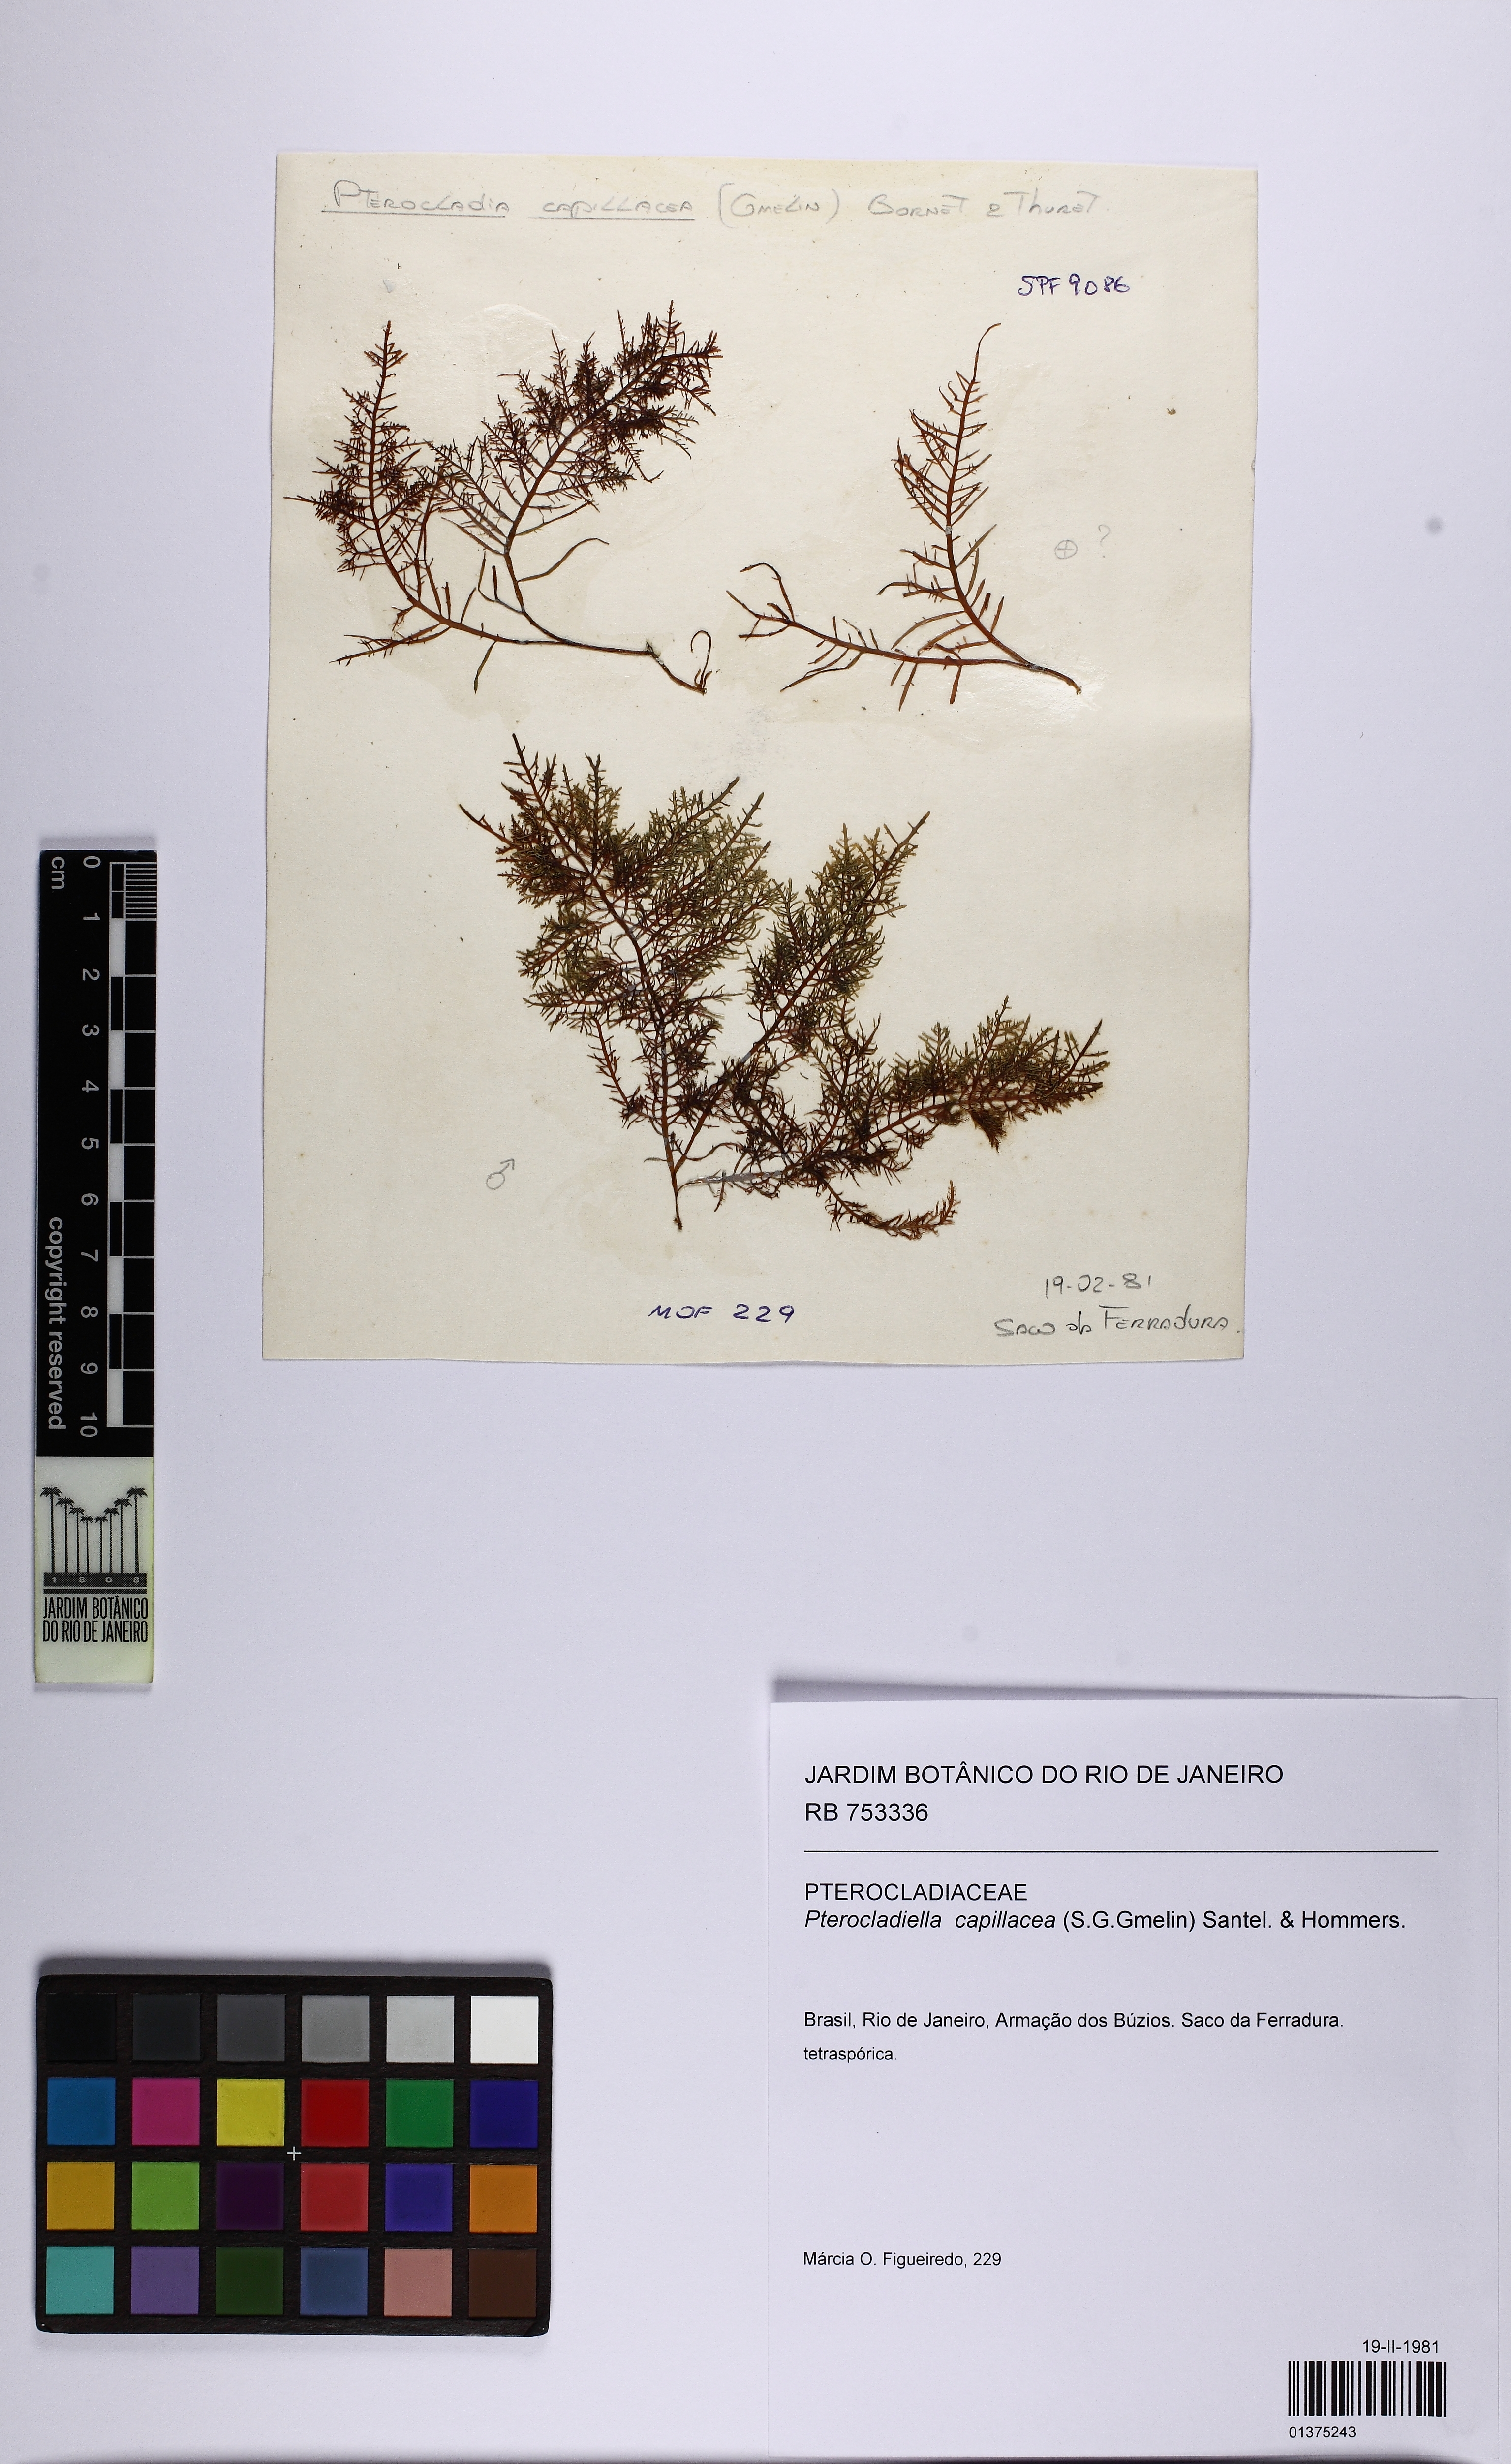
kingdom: Plantae
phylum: Rhodophyta
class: Florideophyceae
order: Gelidiales
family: Pterocladiaceae
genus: Pterocladiella
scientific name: Pterocladiella capillacea
